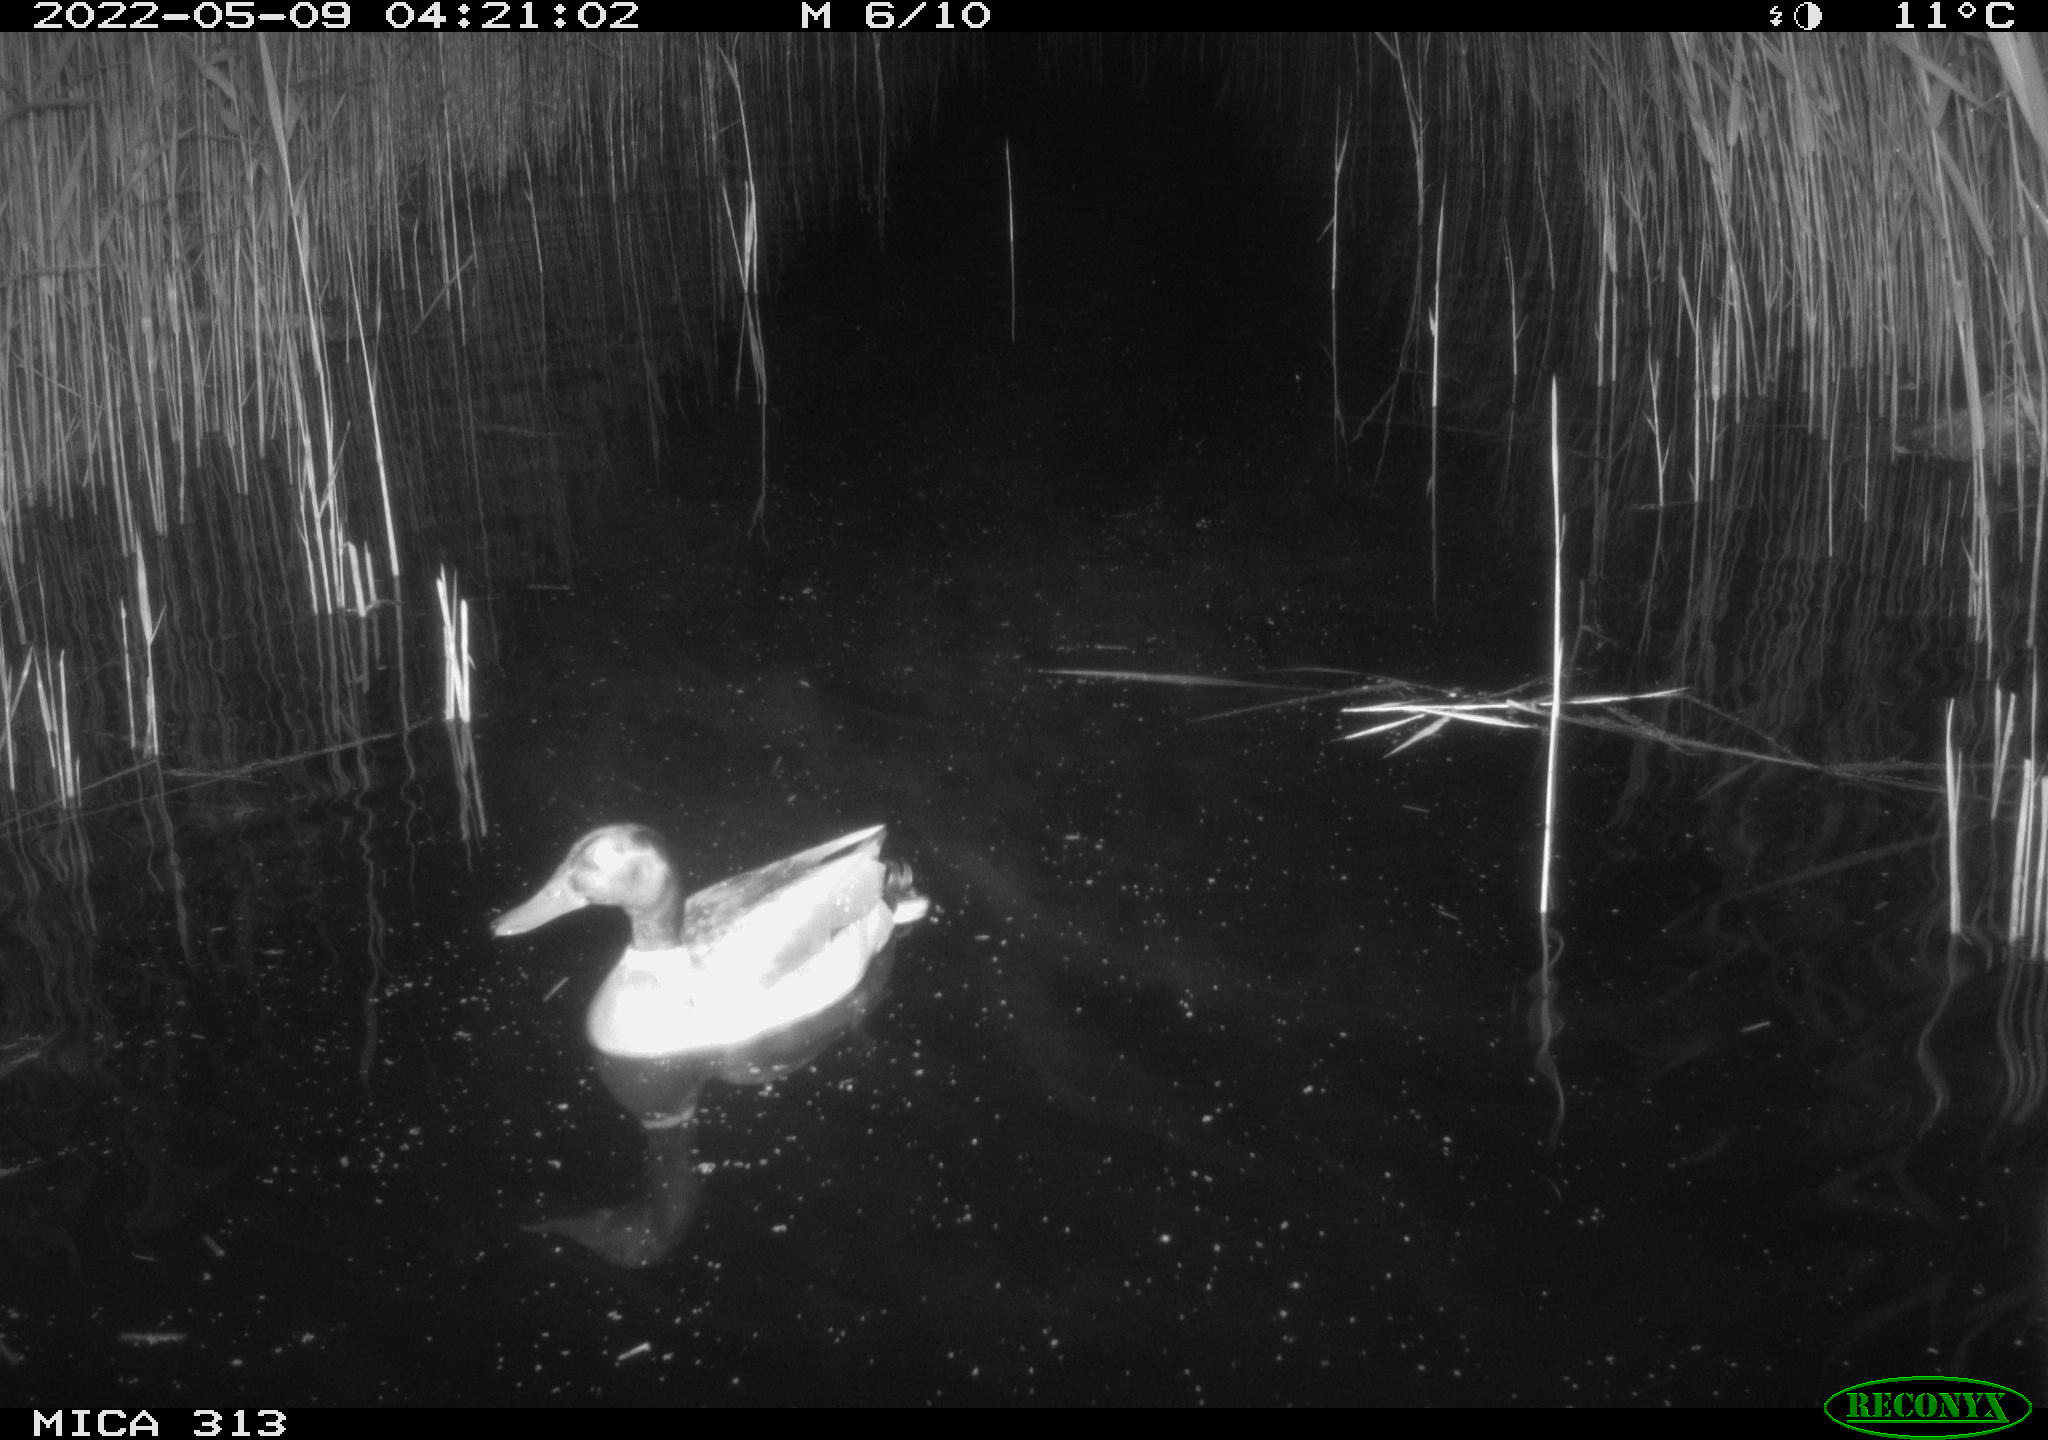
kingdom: Animalia
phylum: Chordata
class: Aves
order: Anseriformes
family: Anatidae
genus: Anas
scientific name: Anas platyrhynchos
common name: Mallard
